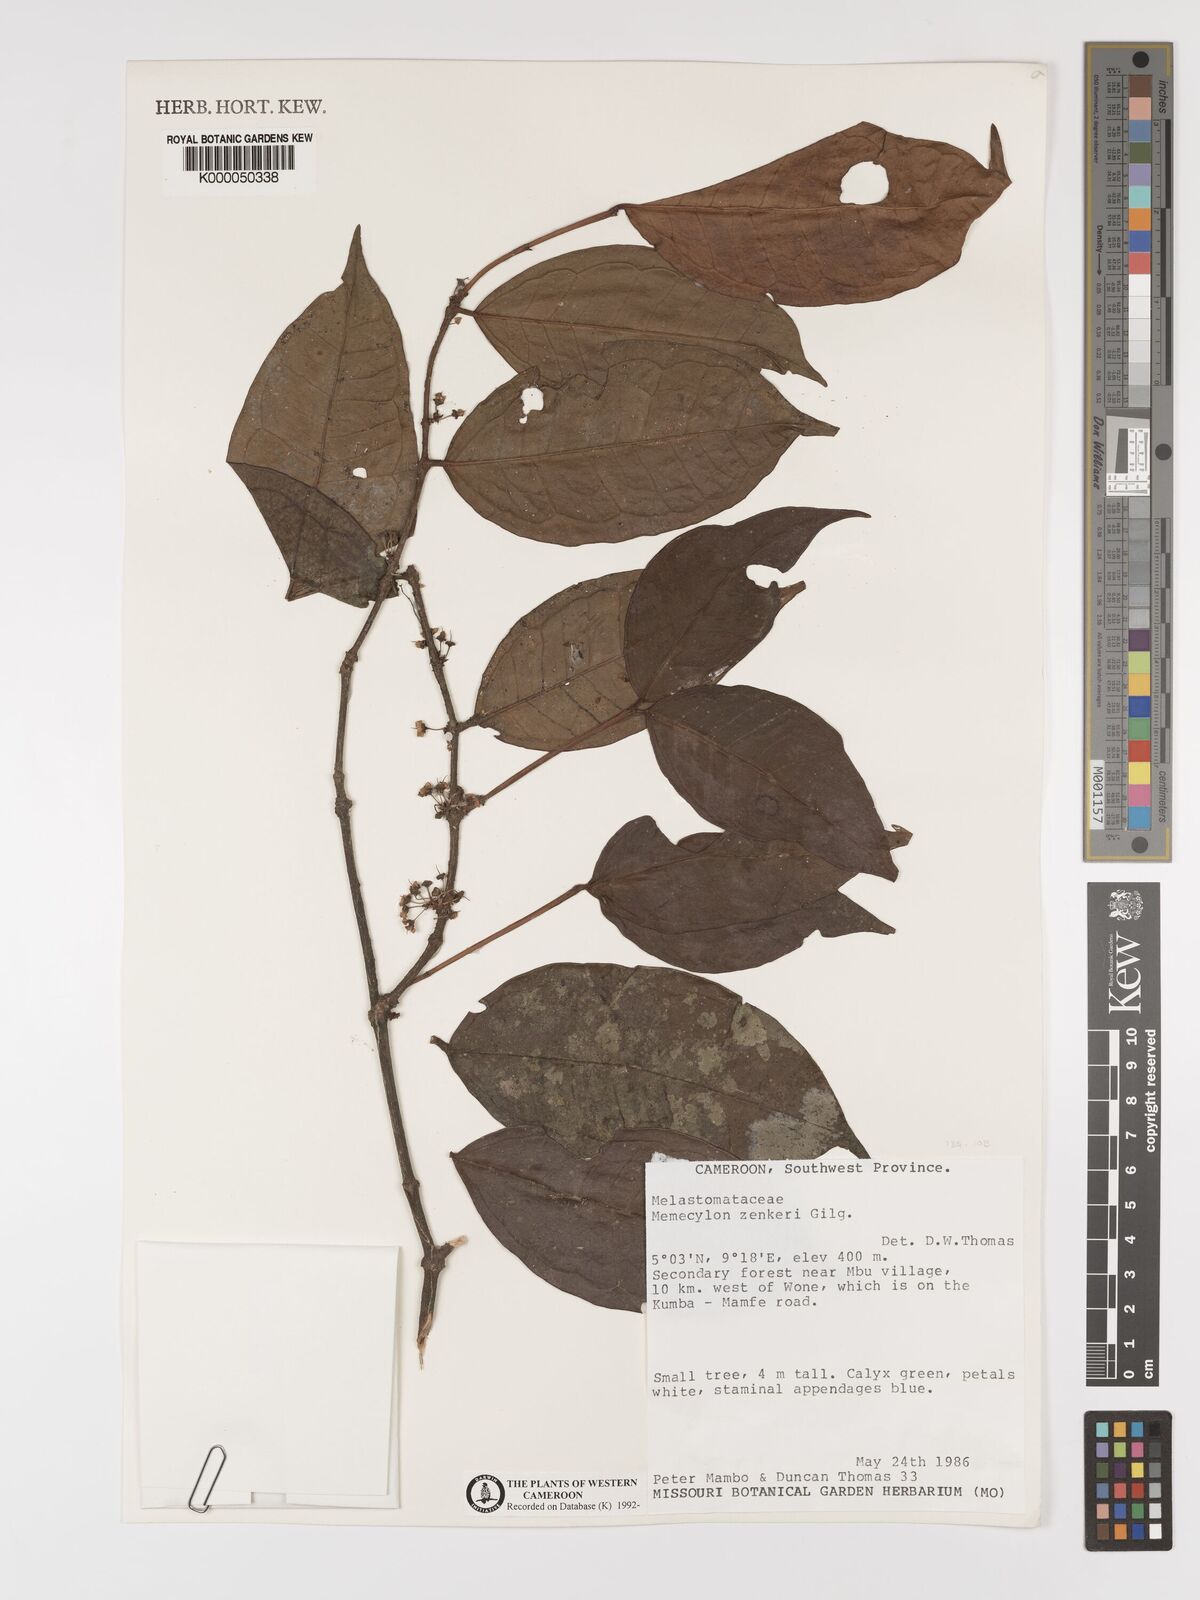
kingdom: Plantae
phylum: Tracheophyta
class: Magnoliopsida
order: Myrtales
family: Melastomataceae
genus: Memecylon
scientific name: Memecylon zenkeri
